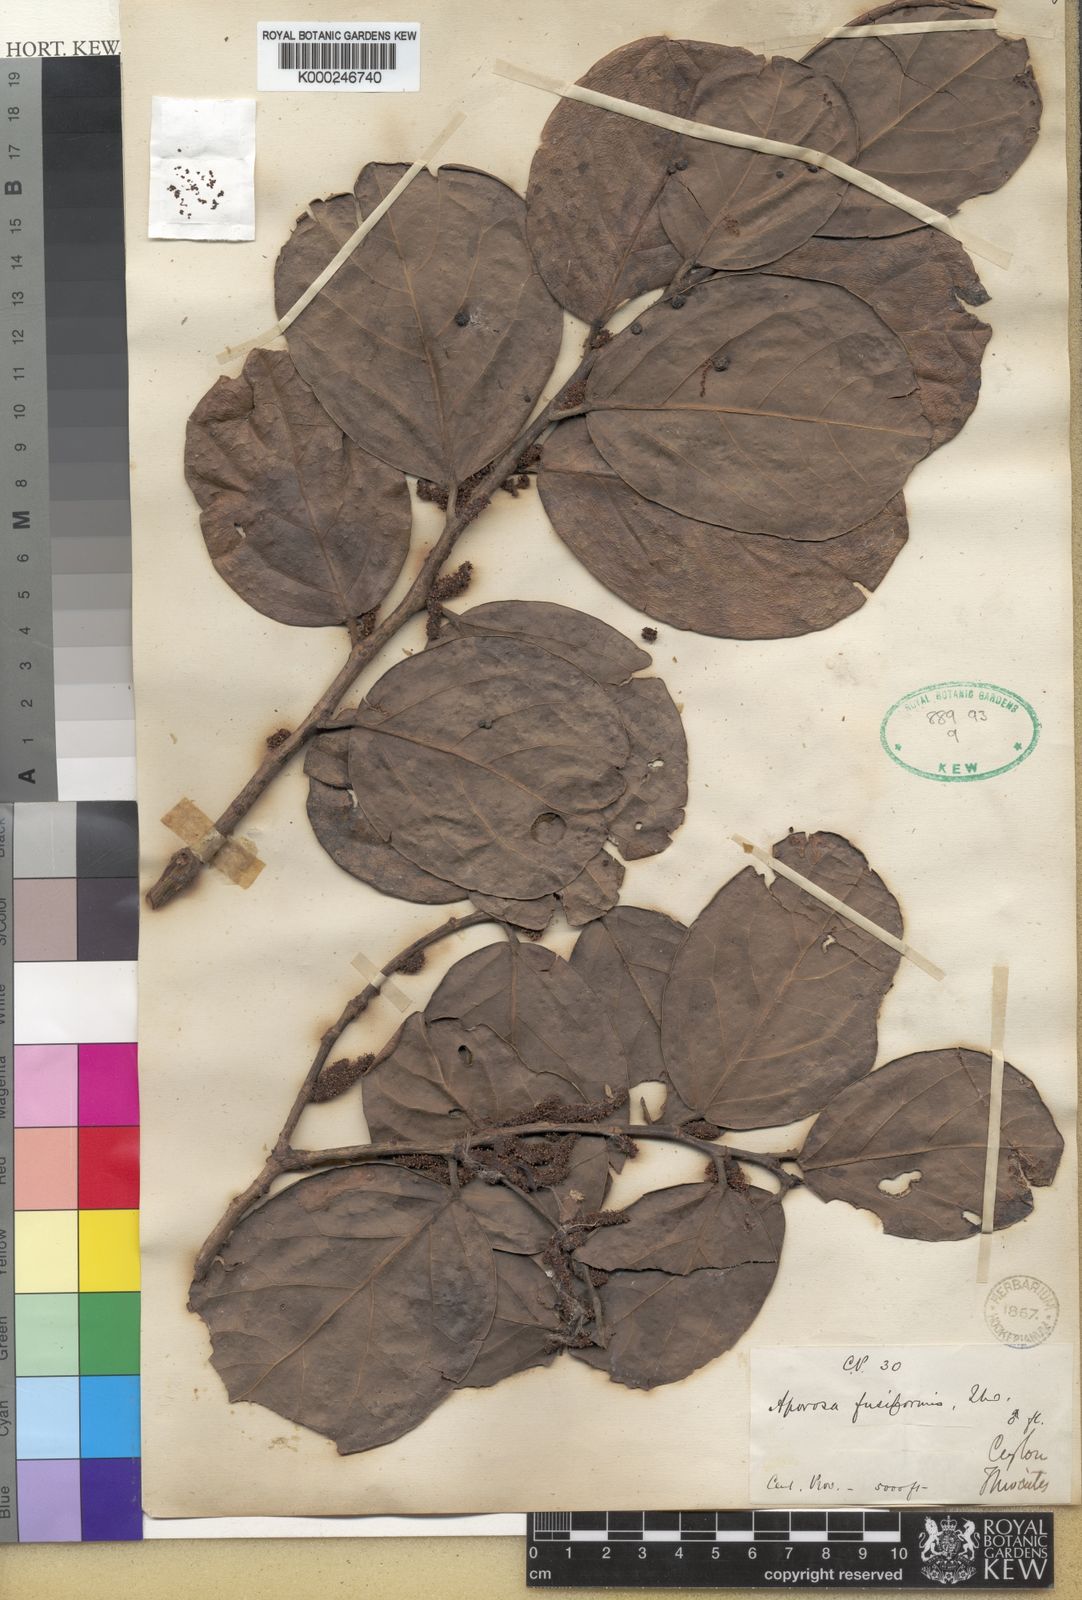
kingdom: Plantae
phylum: Tracheophyta
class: Magnoliopsida
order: Malpighiales
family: Phyllanthaceae
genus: Aporosa
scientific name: Aporosa fusiformis
